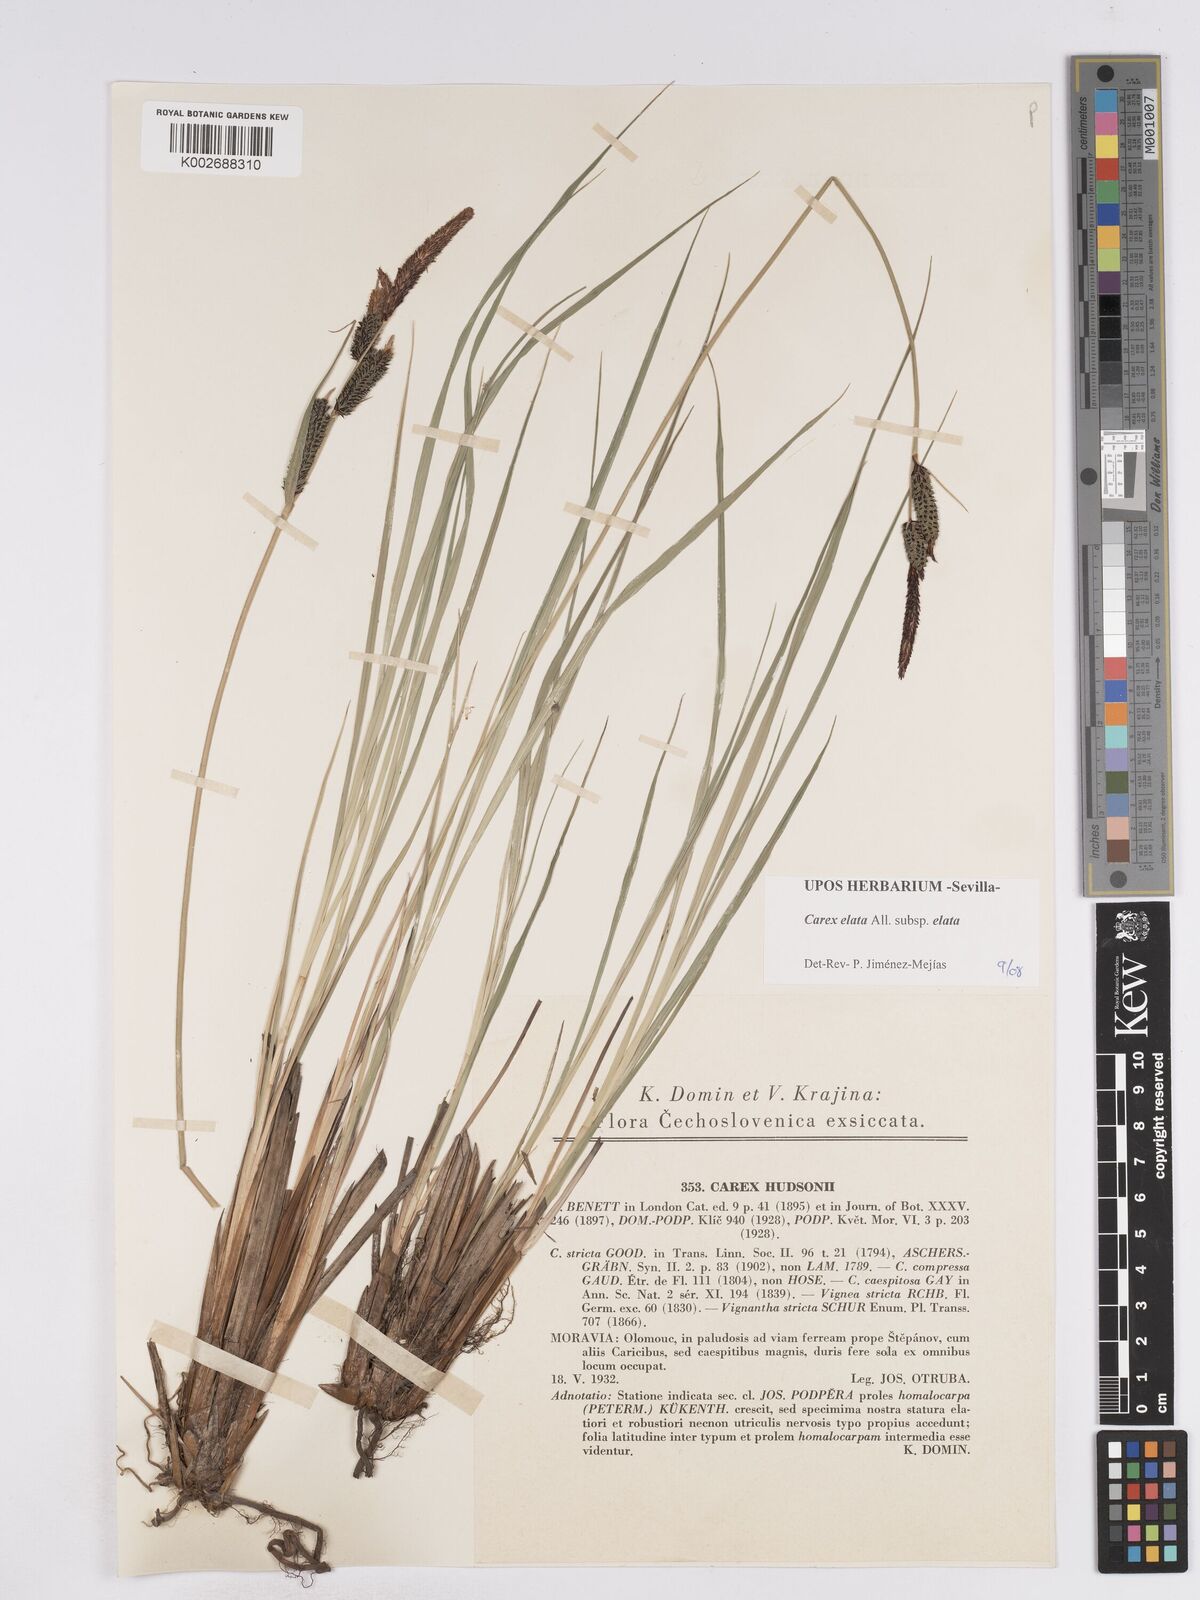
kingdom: Plantae
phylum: Tracheophyta
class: Liliopsida
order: Poales
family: Cyperaceae
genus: Carex
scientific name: Carex elata
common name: Tufted sedge
